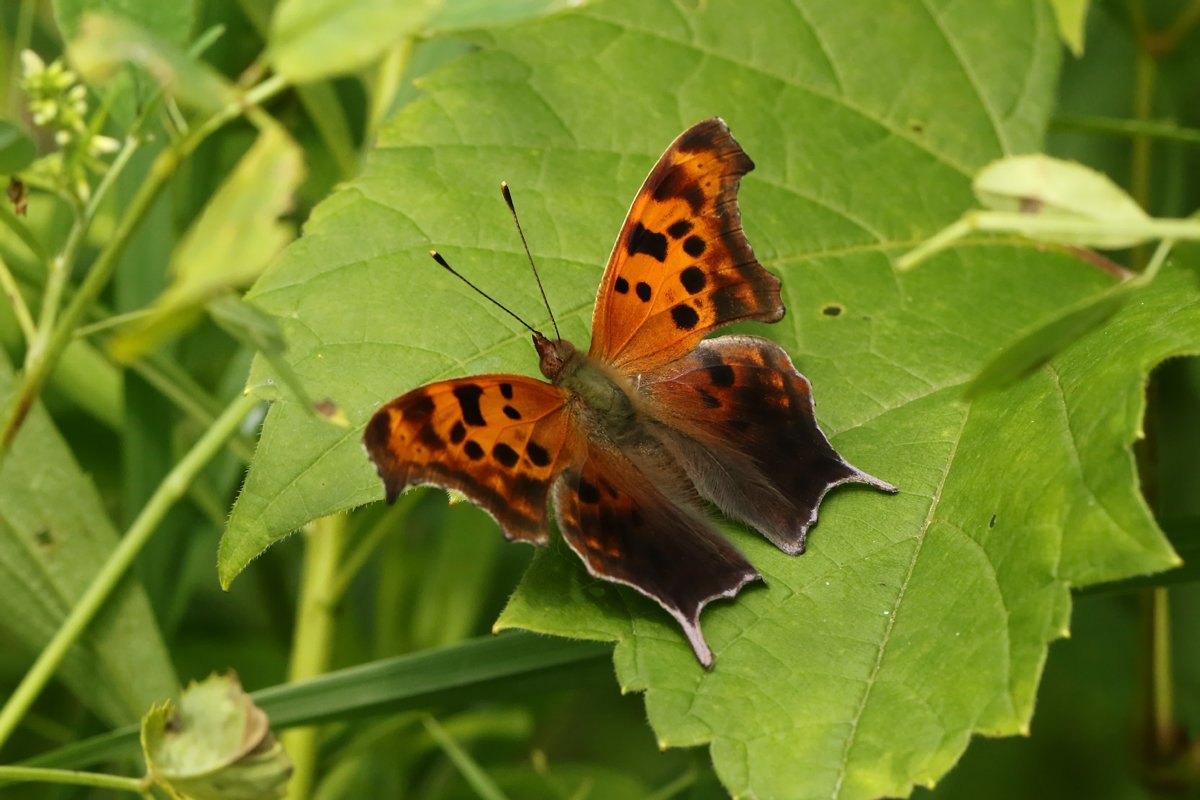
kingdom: Animalia
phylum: Arthropoda
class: Insecta
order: Lepidoptera
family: Nymphalidae
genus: Polygonia
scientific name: Polygonia interrogationis
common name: Question Mark
